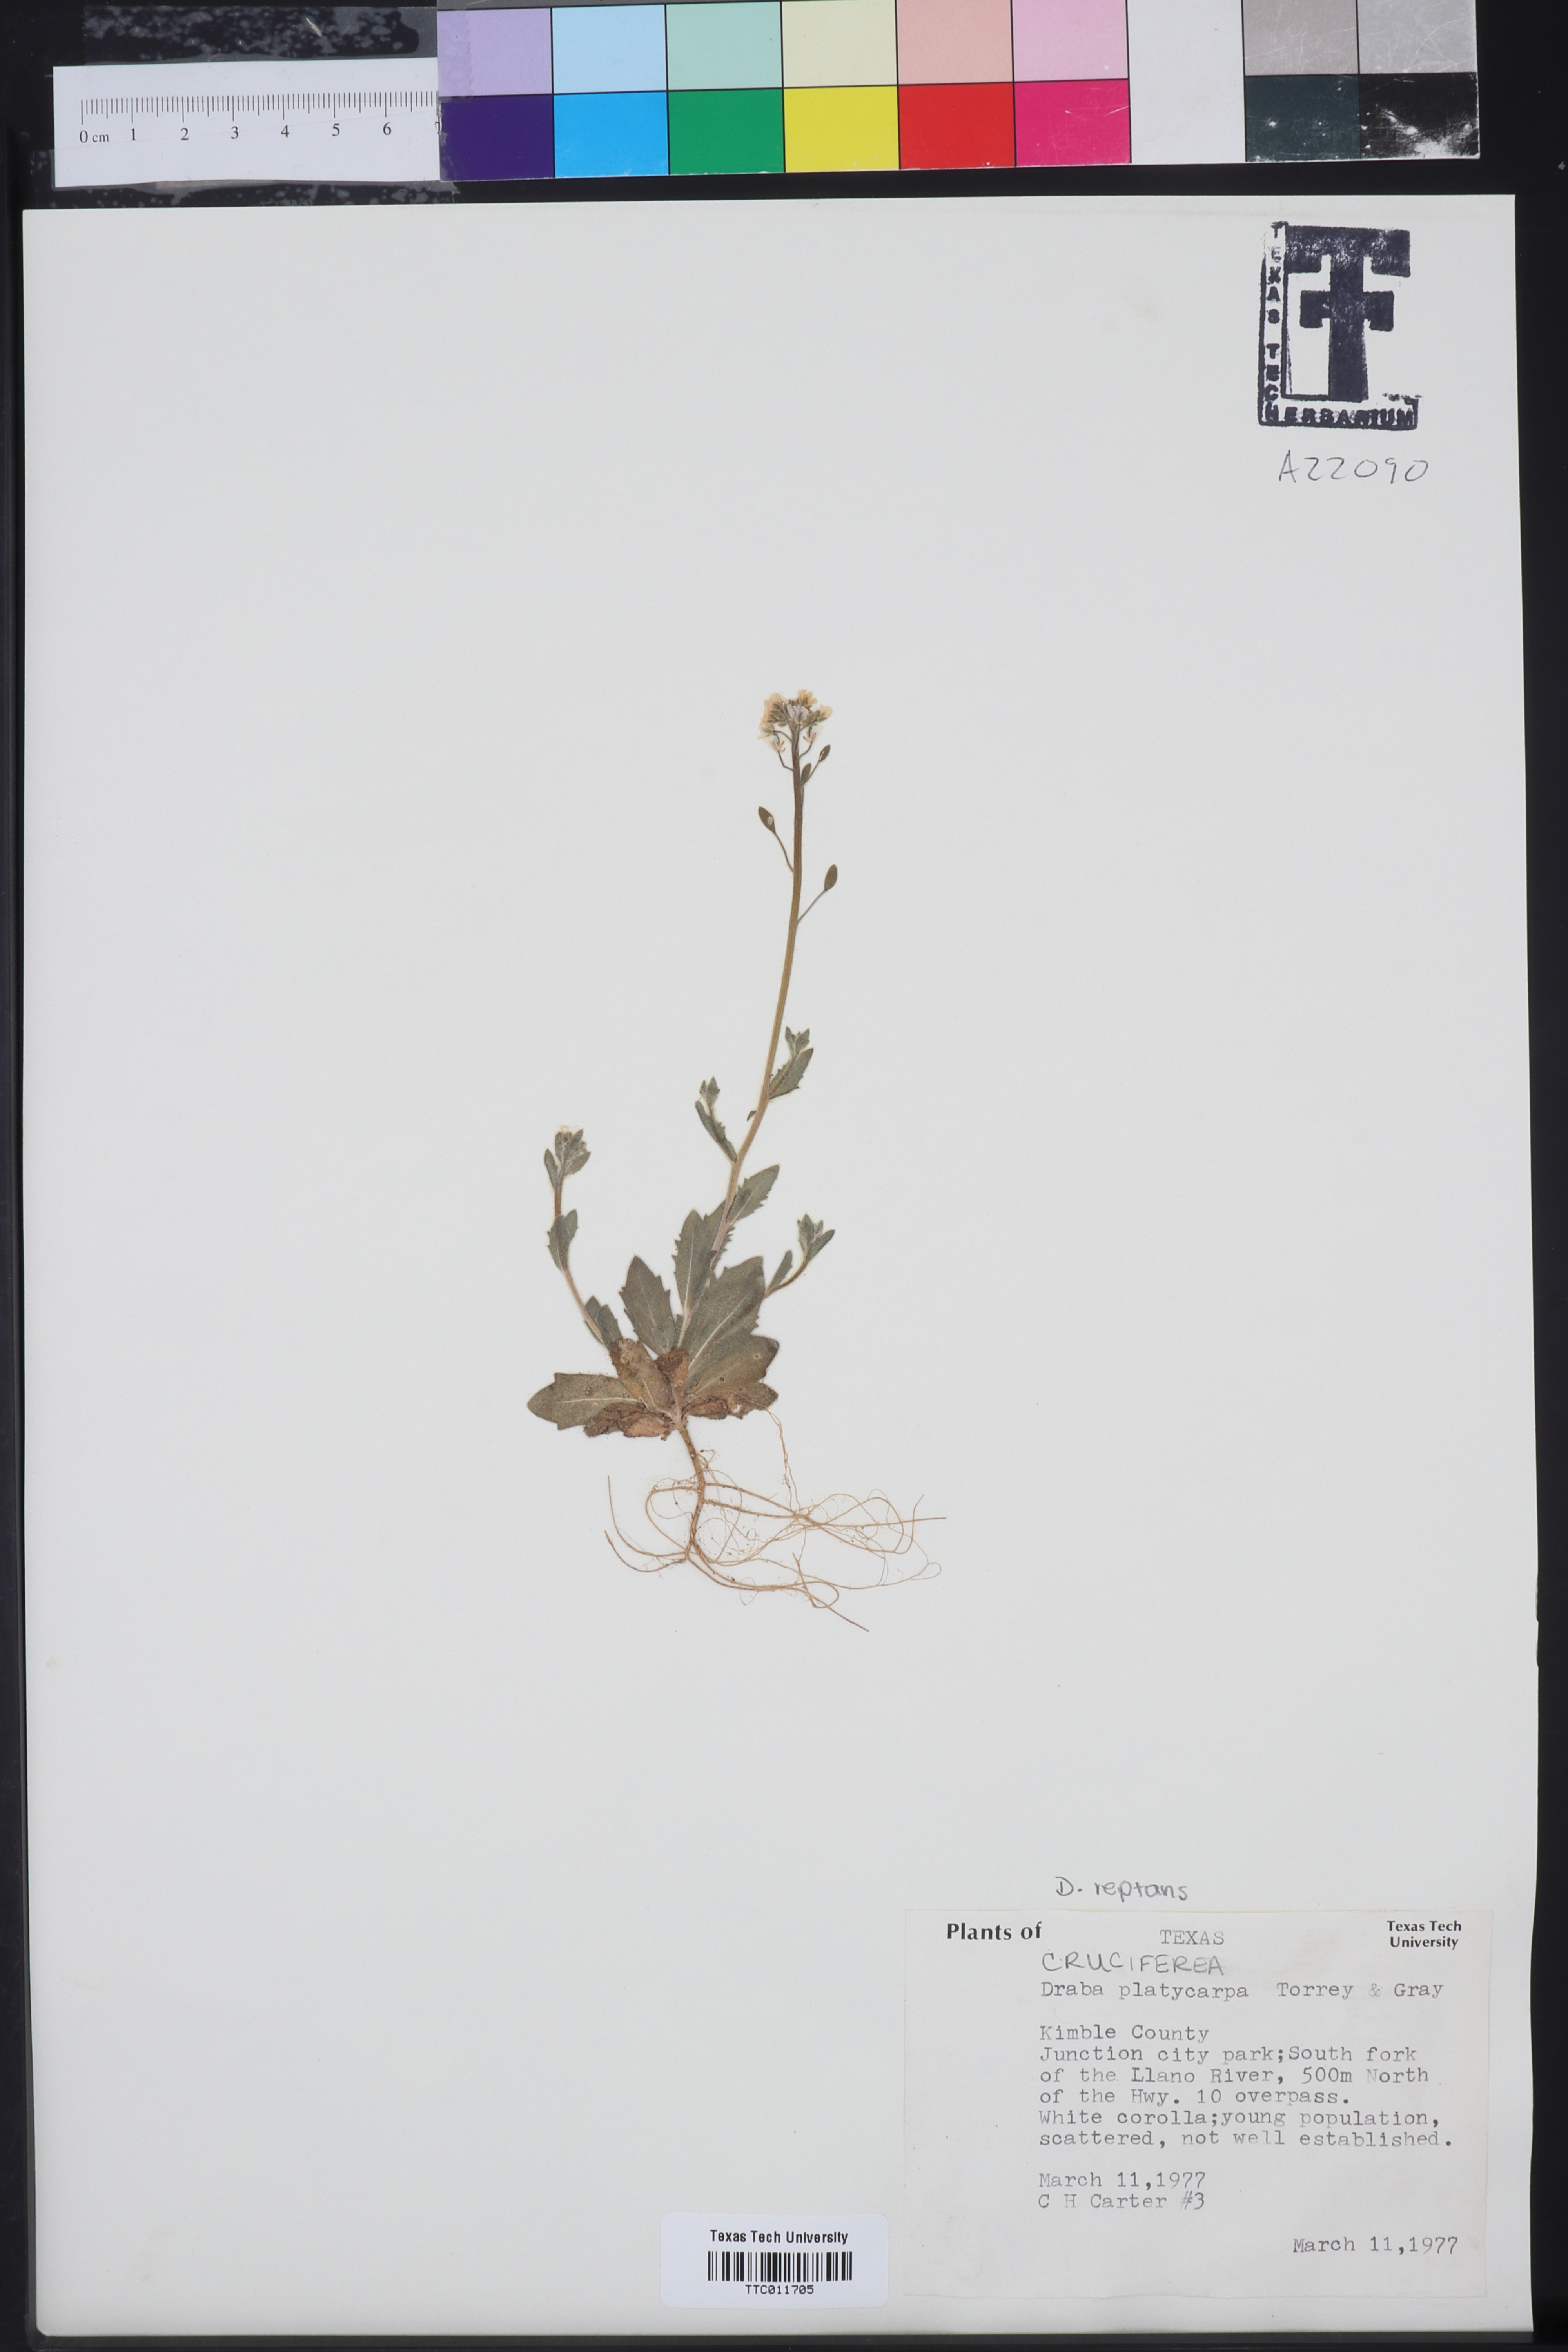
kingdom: Plantae
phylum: Tracheophyta
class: Magnoliopsida
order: Brassicales
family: Brassicaceae
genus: Tomostima
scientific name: Tomostima platycarpa
